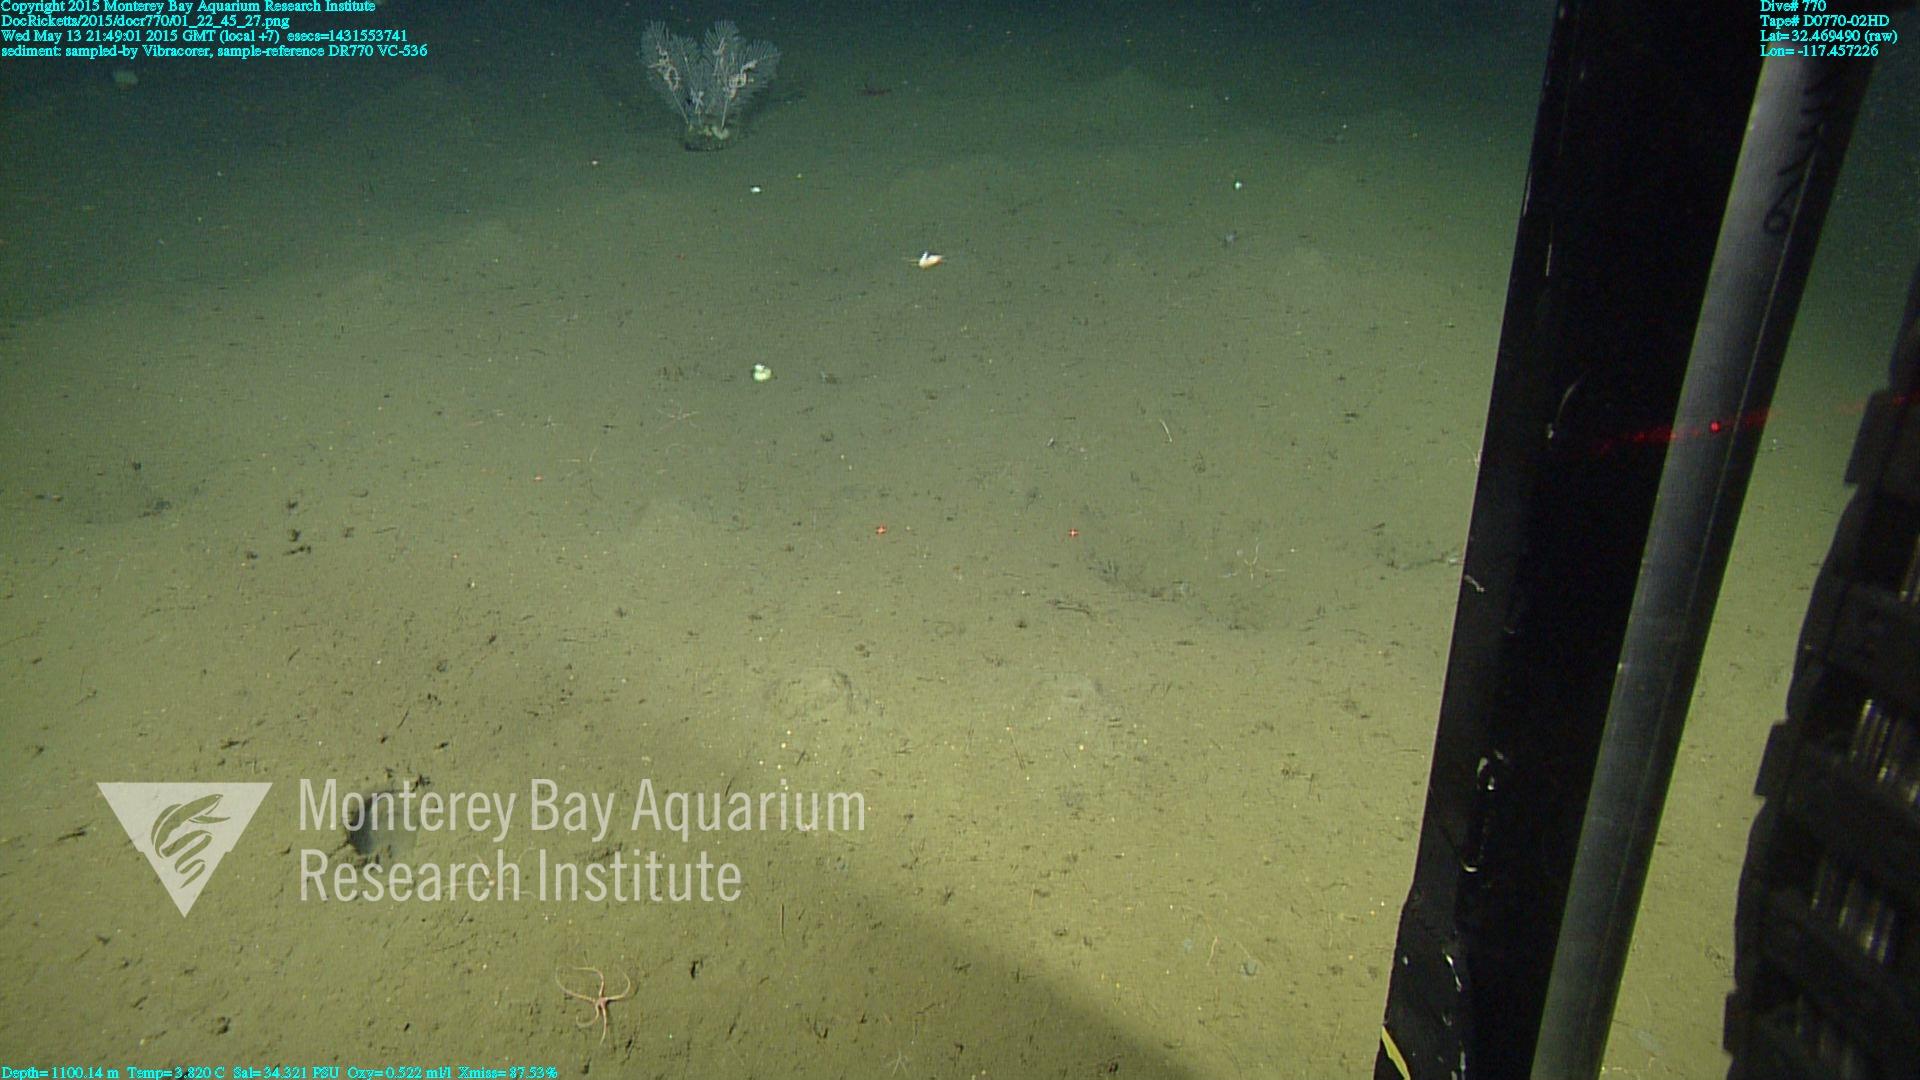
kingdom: Animalia
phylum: Cnidaria
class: Anthozoa
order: Scleralcyonacea
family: Primnoidae
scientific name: Primnoidae
